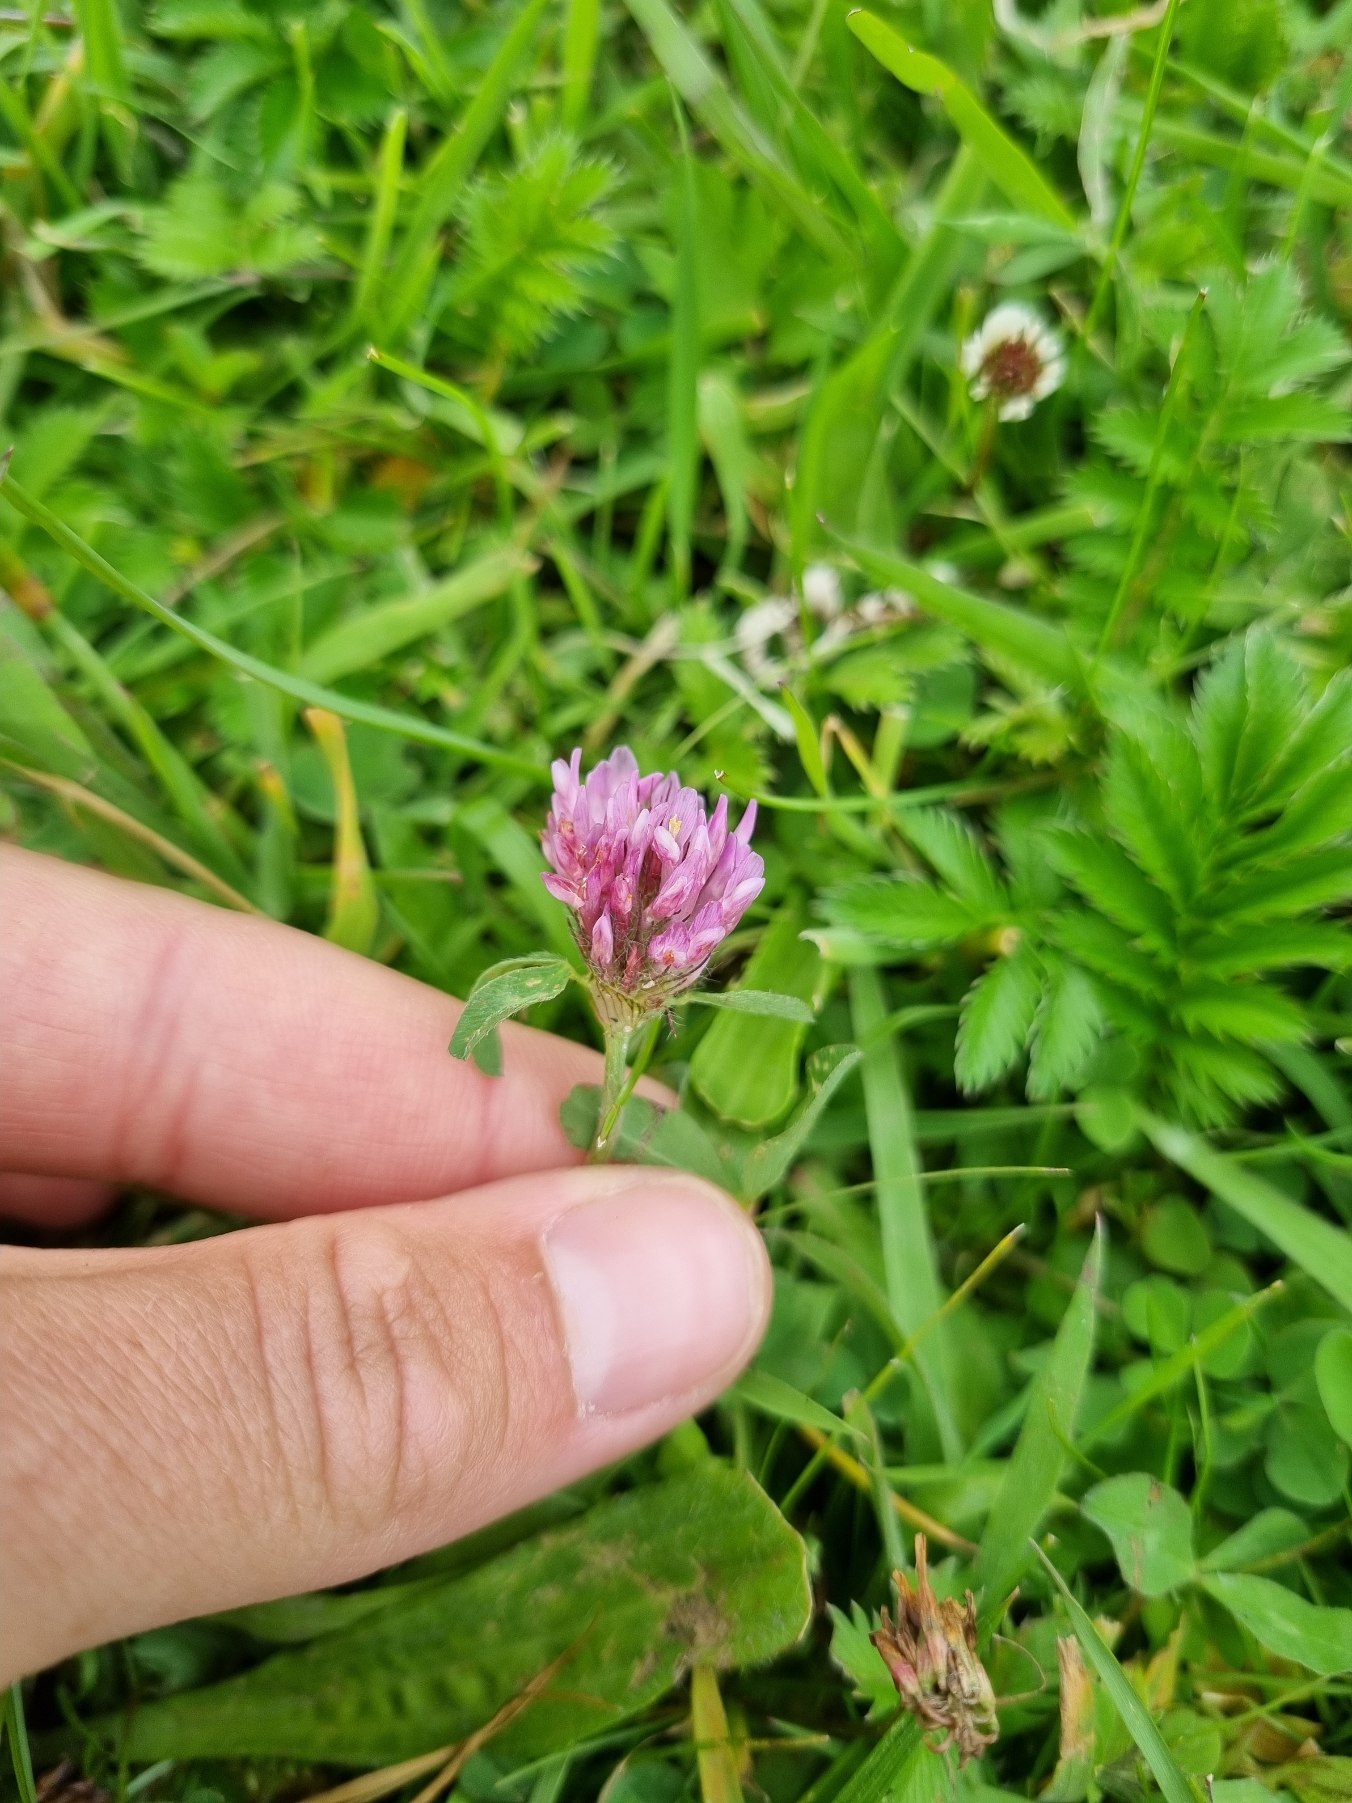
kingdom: Plantae
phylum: Tracheophyta
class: Magnoliopsida
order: Fabales
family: Fabaceae
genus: Trifolium
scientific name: Trifolium pratense
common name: Rød-kløver
